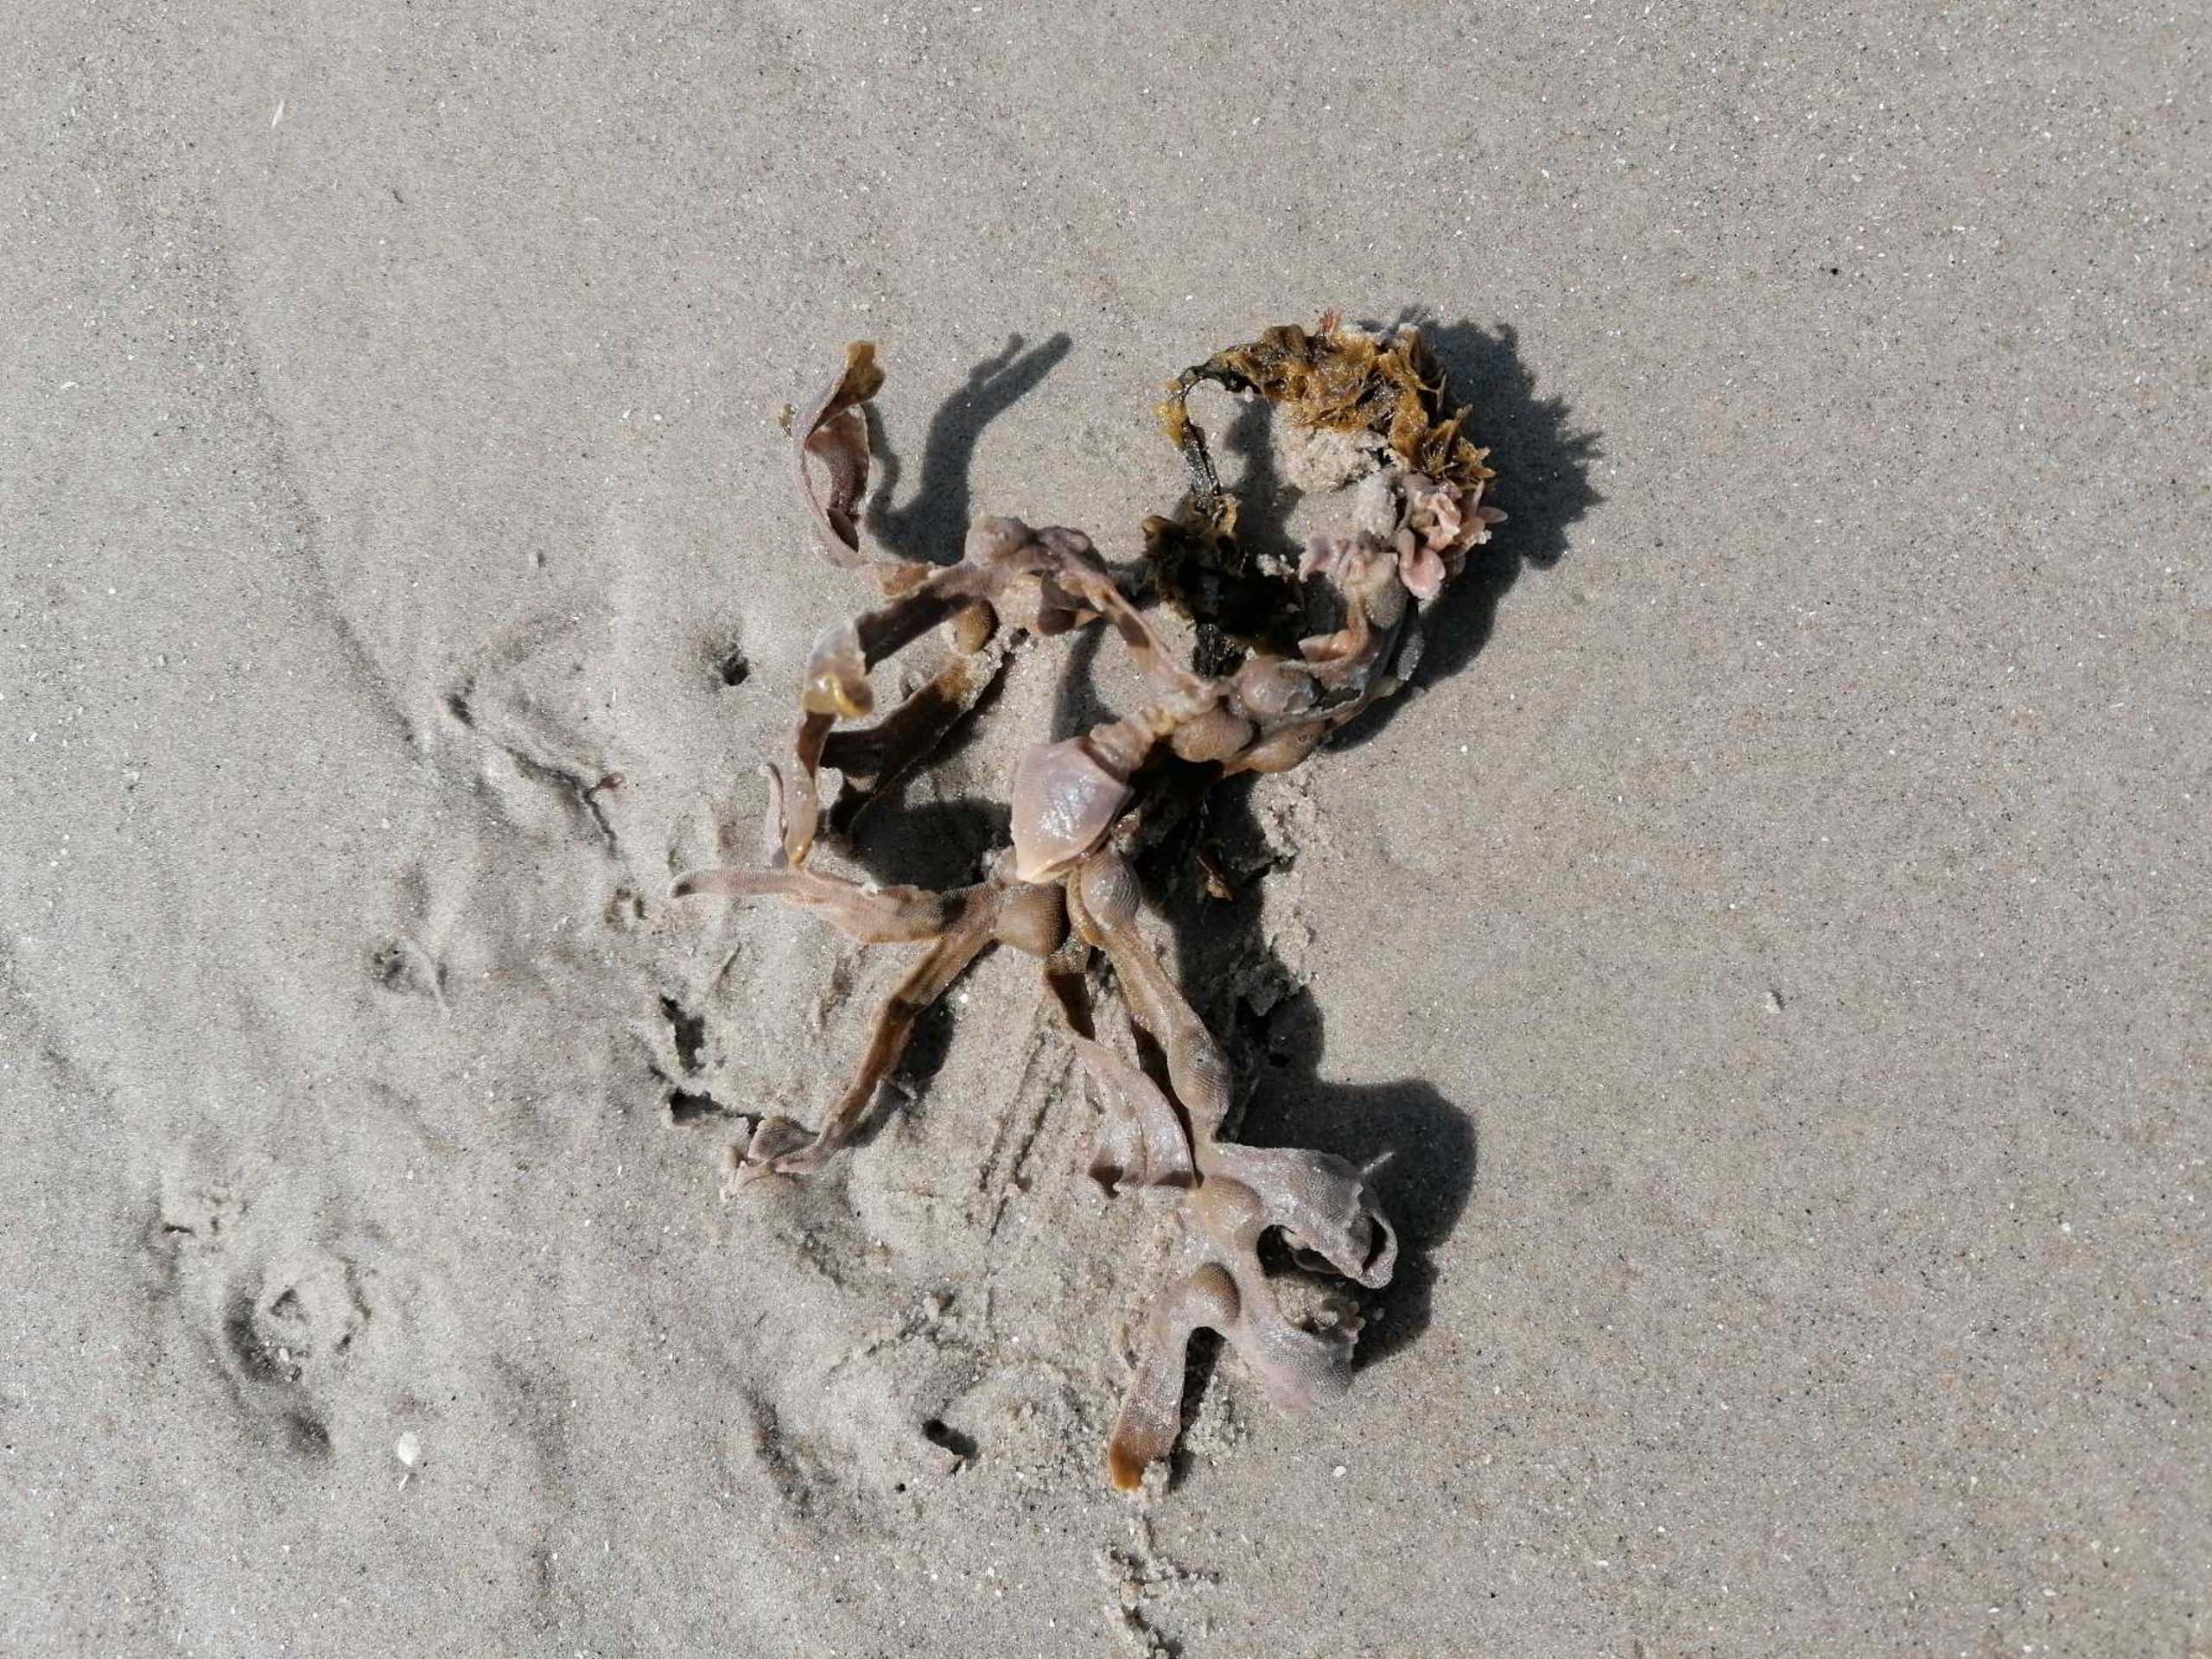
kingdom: Chromista
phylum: Ochrophyta
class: Phaeophyceae
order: Fucales
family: Fucaceae
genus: Fucus
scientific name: Fucus vesiculosus
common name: Blæretang
